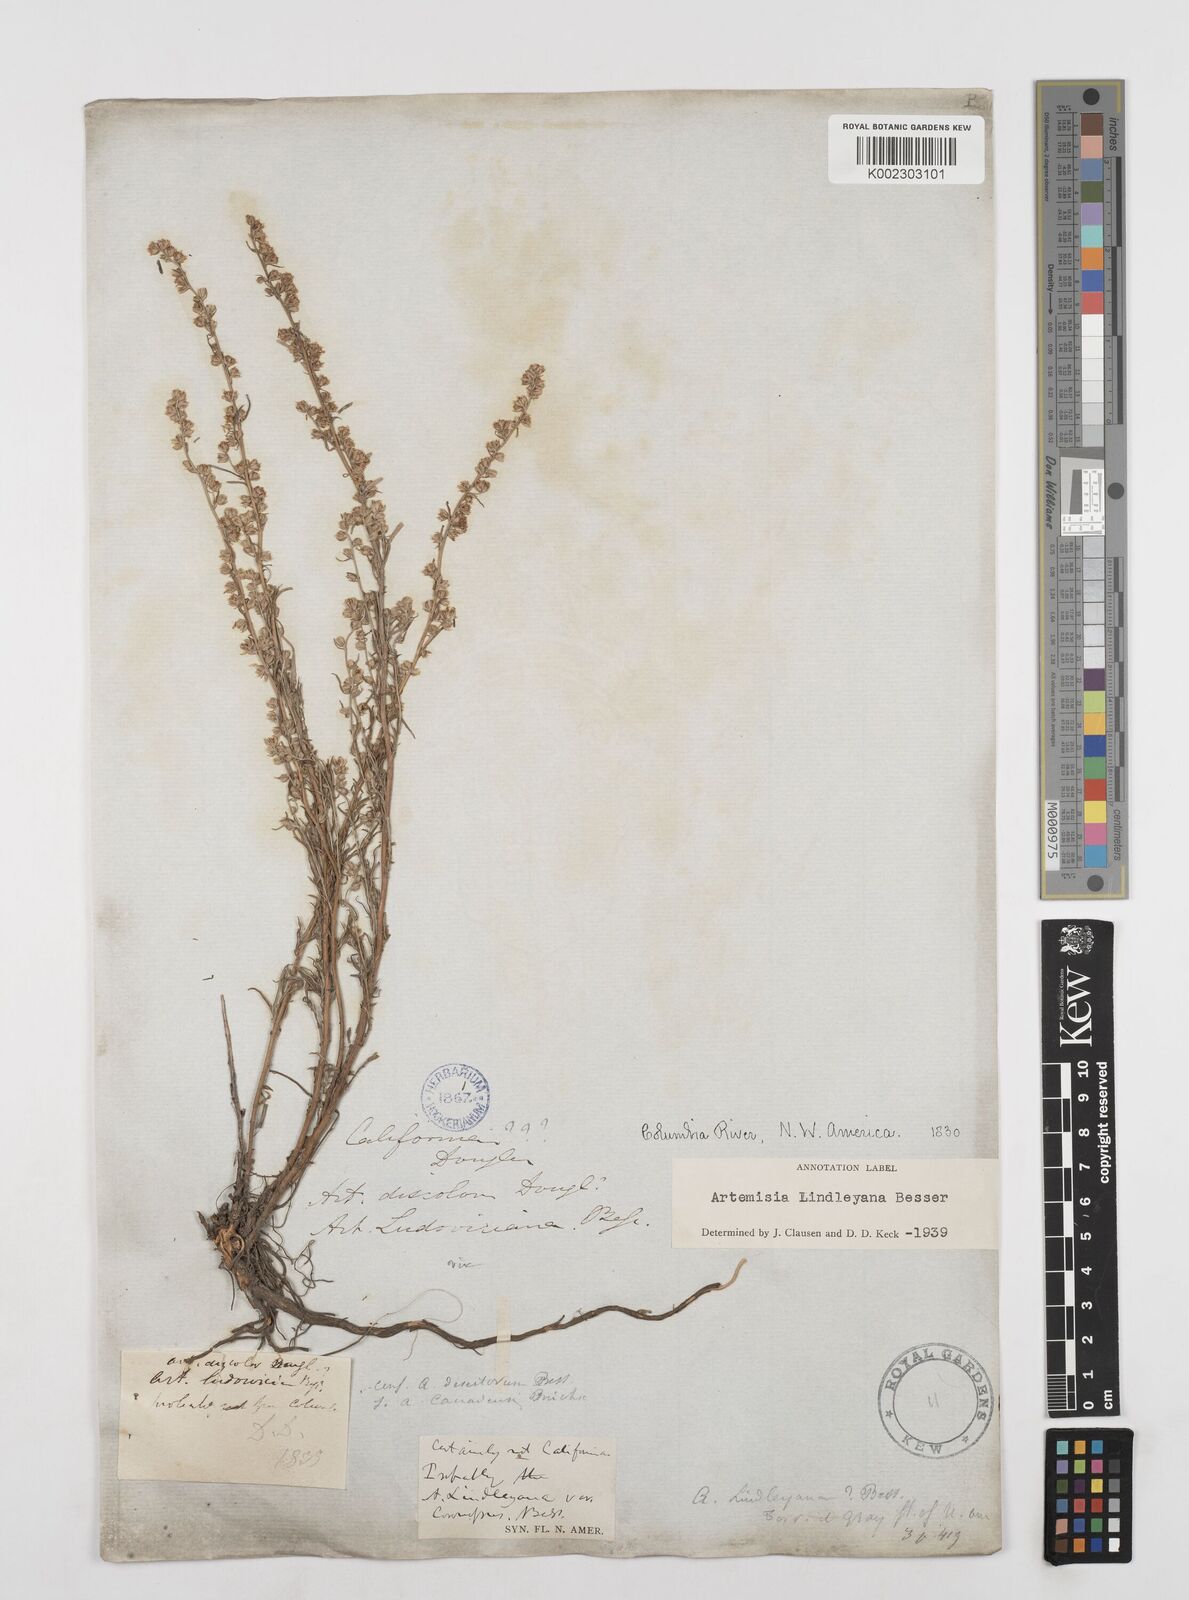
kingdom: Plantae
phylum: Tracheophyta
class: Magnoliopsida
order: Asterales
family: Asteraceae
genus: Artemisia
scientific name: Artemisia ludoviciana
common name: Western mugwort
